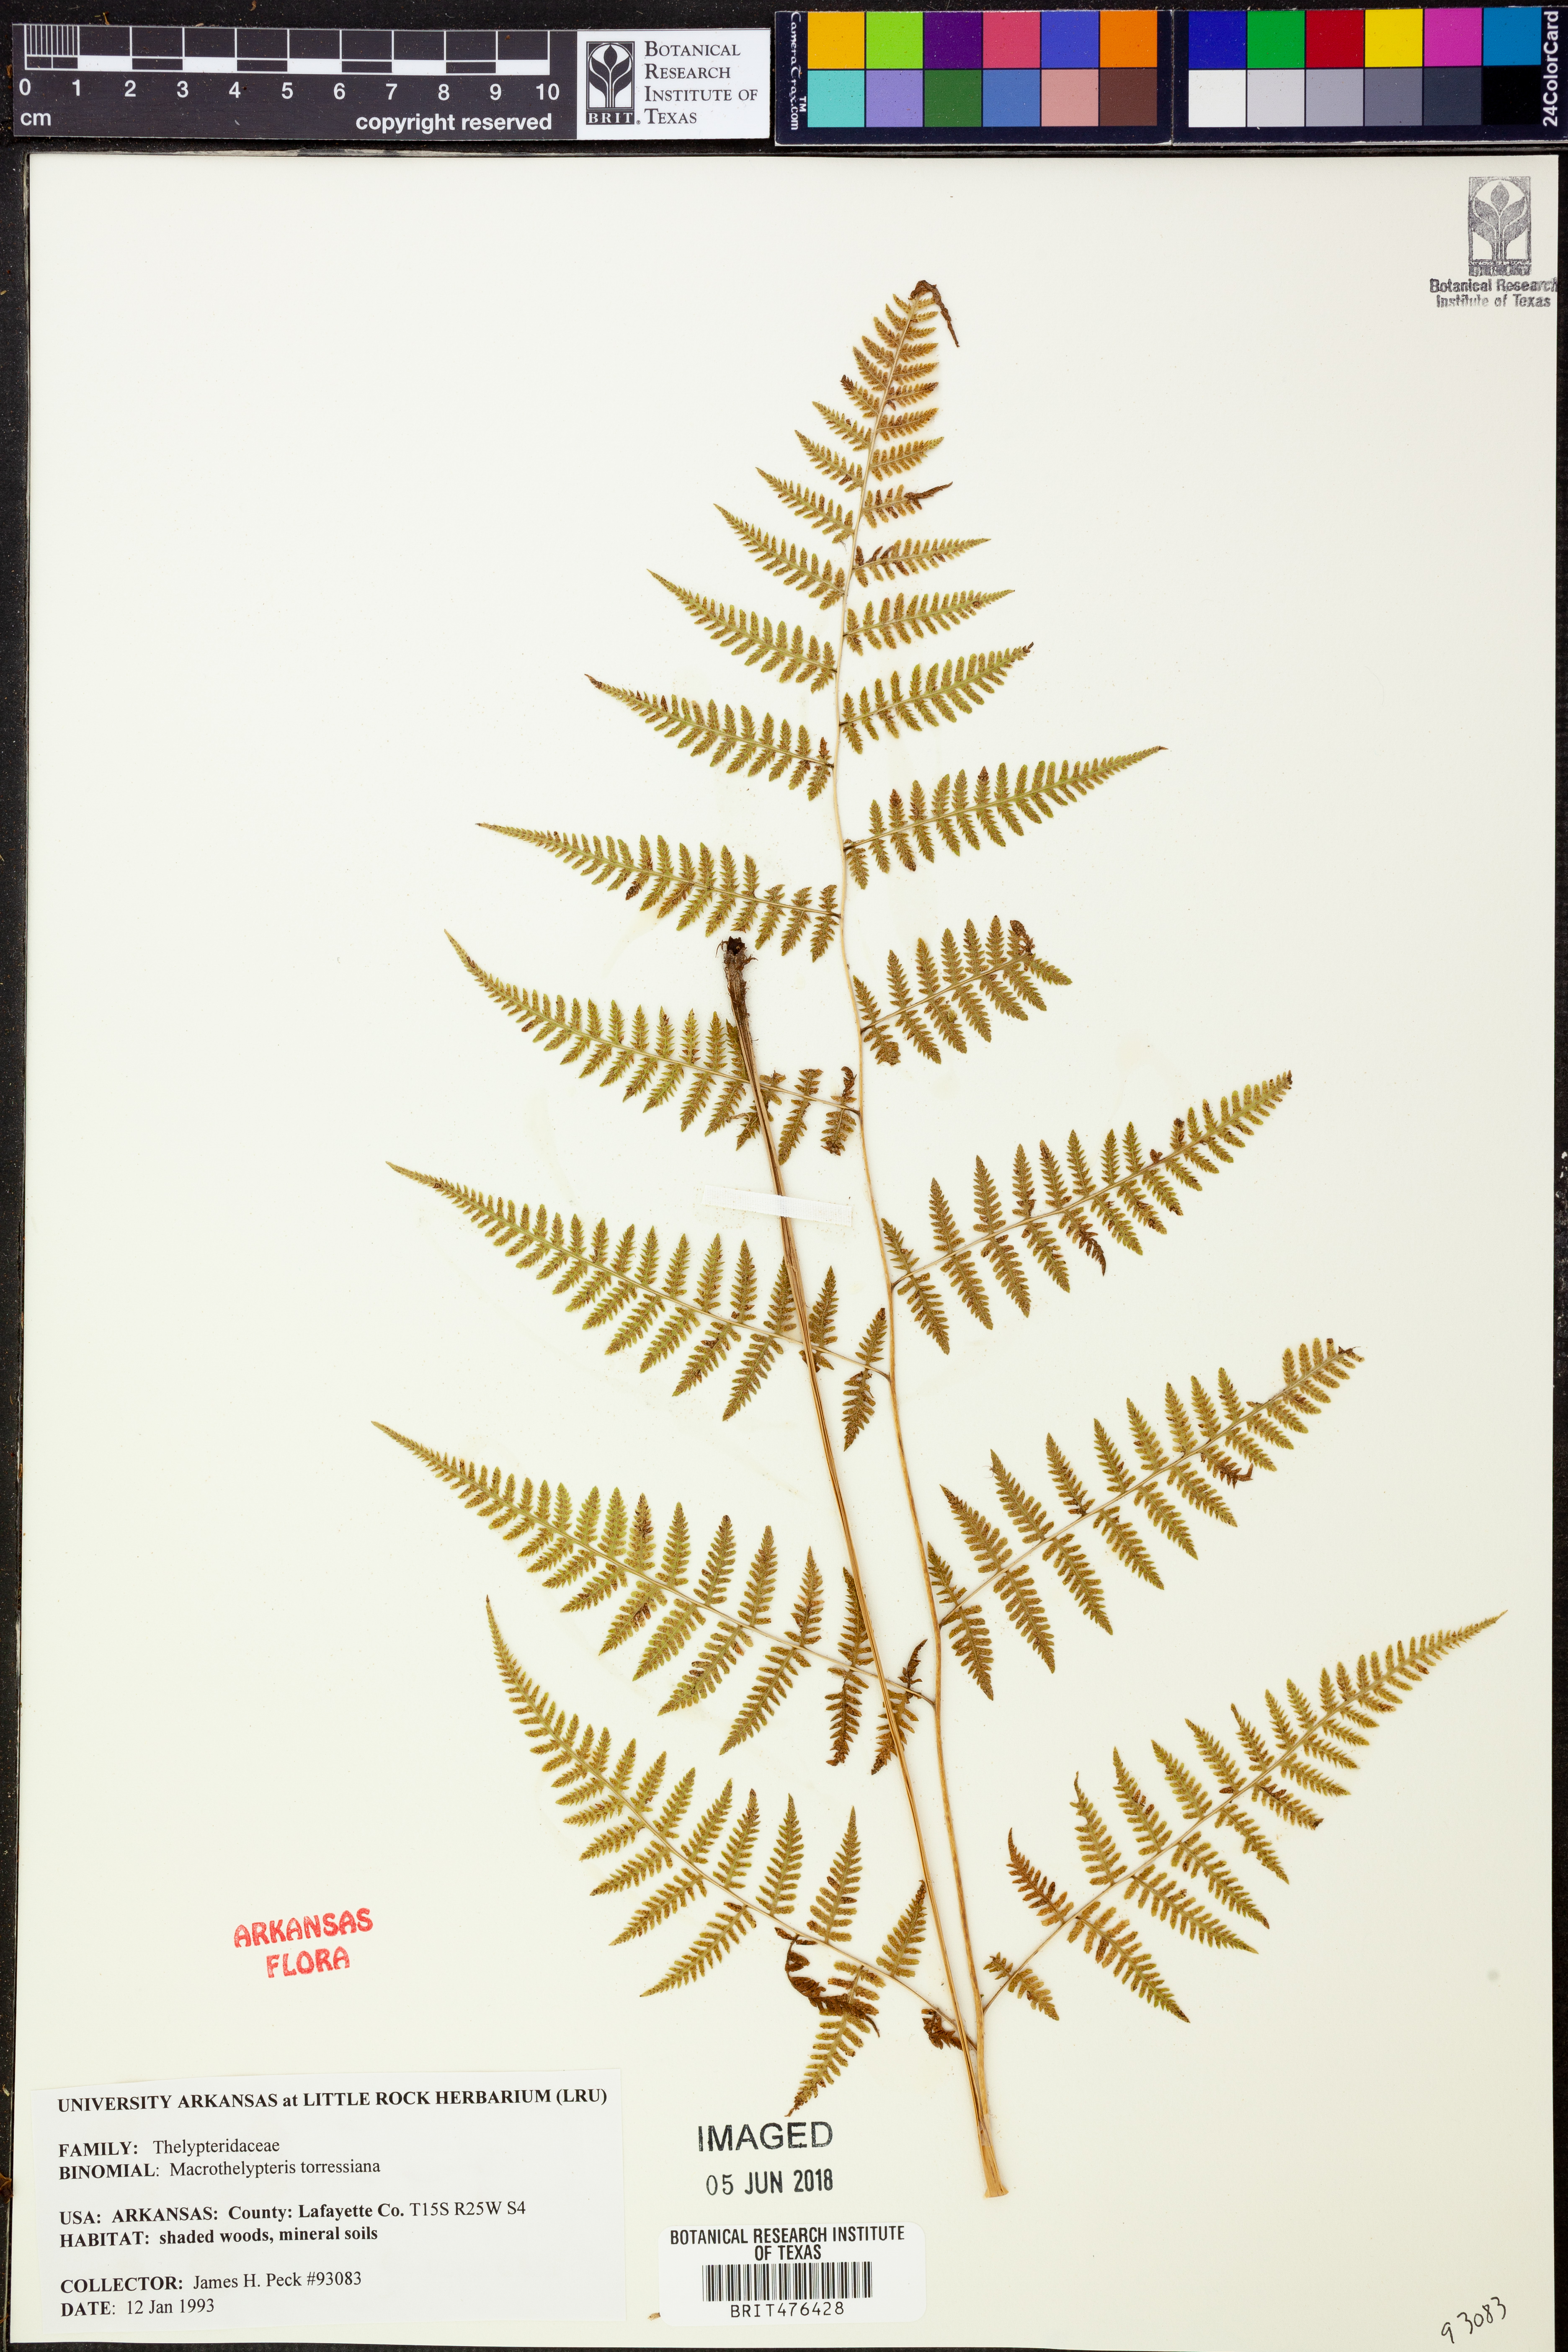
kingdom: Plantae
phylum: Tracheophyta
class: Polypodiopsida
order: Polypodiales
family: Thelypteridaceae
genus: Macrothelypteris
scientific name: Macrothelypteris torresiana
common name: Swordfern
